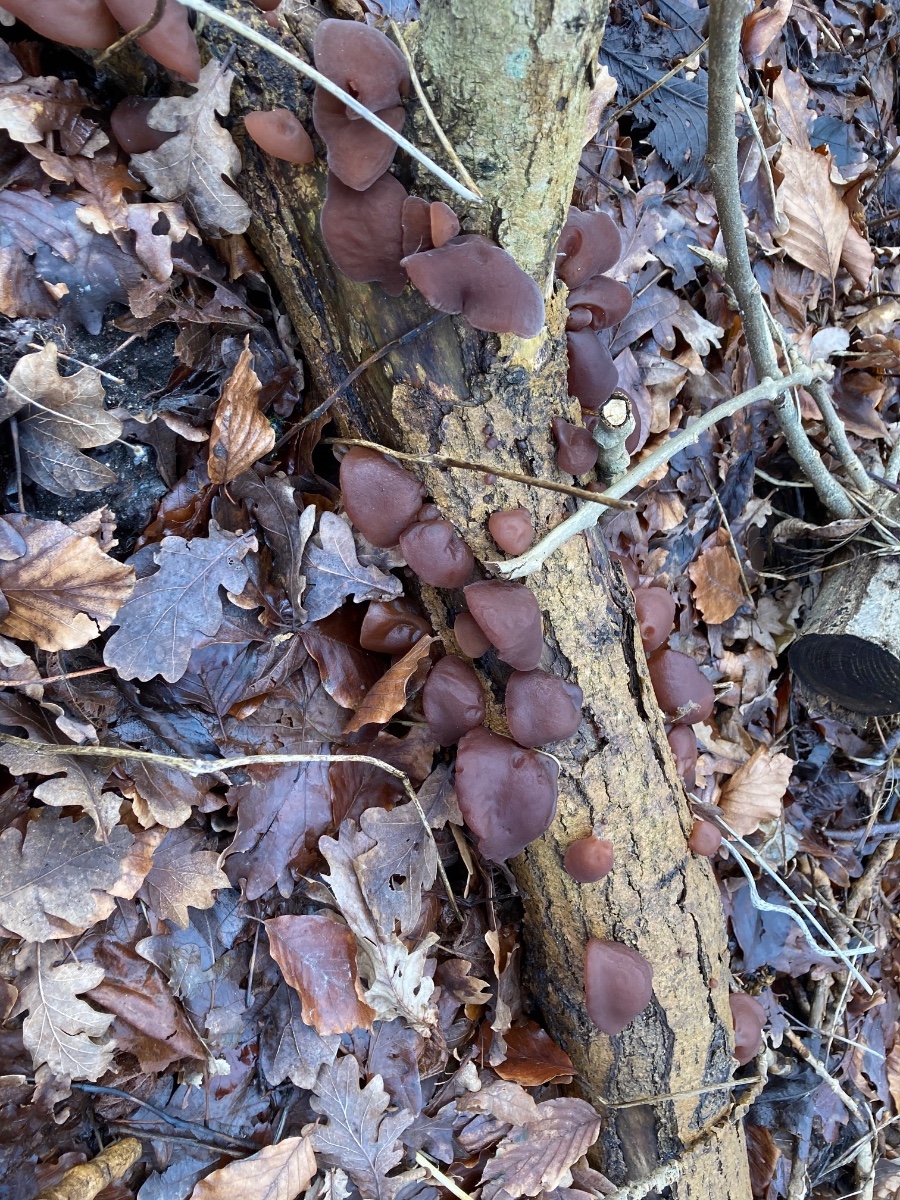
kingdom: Fungi
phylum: Basidiomycota
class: Agaricomycetes
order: Auriculariales
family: Auriculariaceae
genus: Auricularia
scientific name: Auricularia auricula-judae
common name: almindelig judasøre
